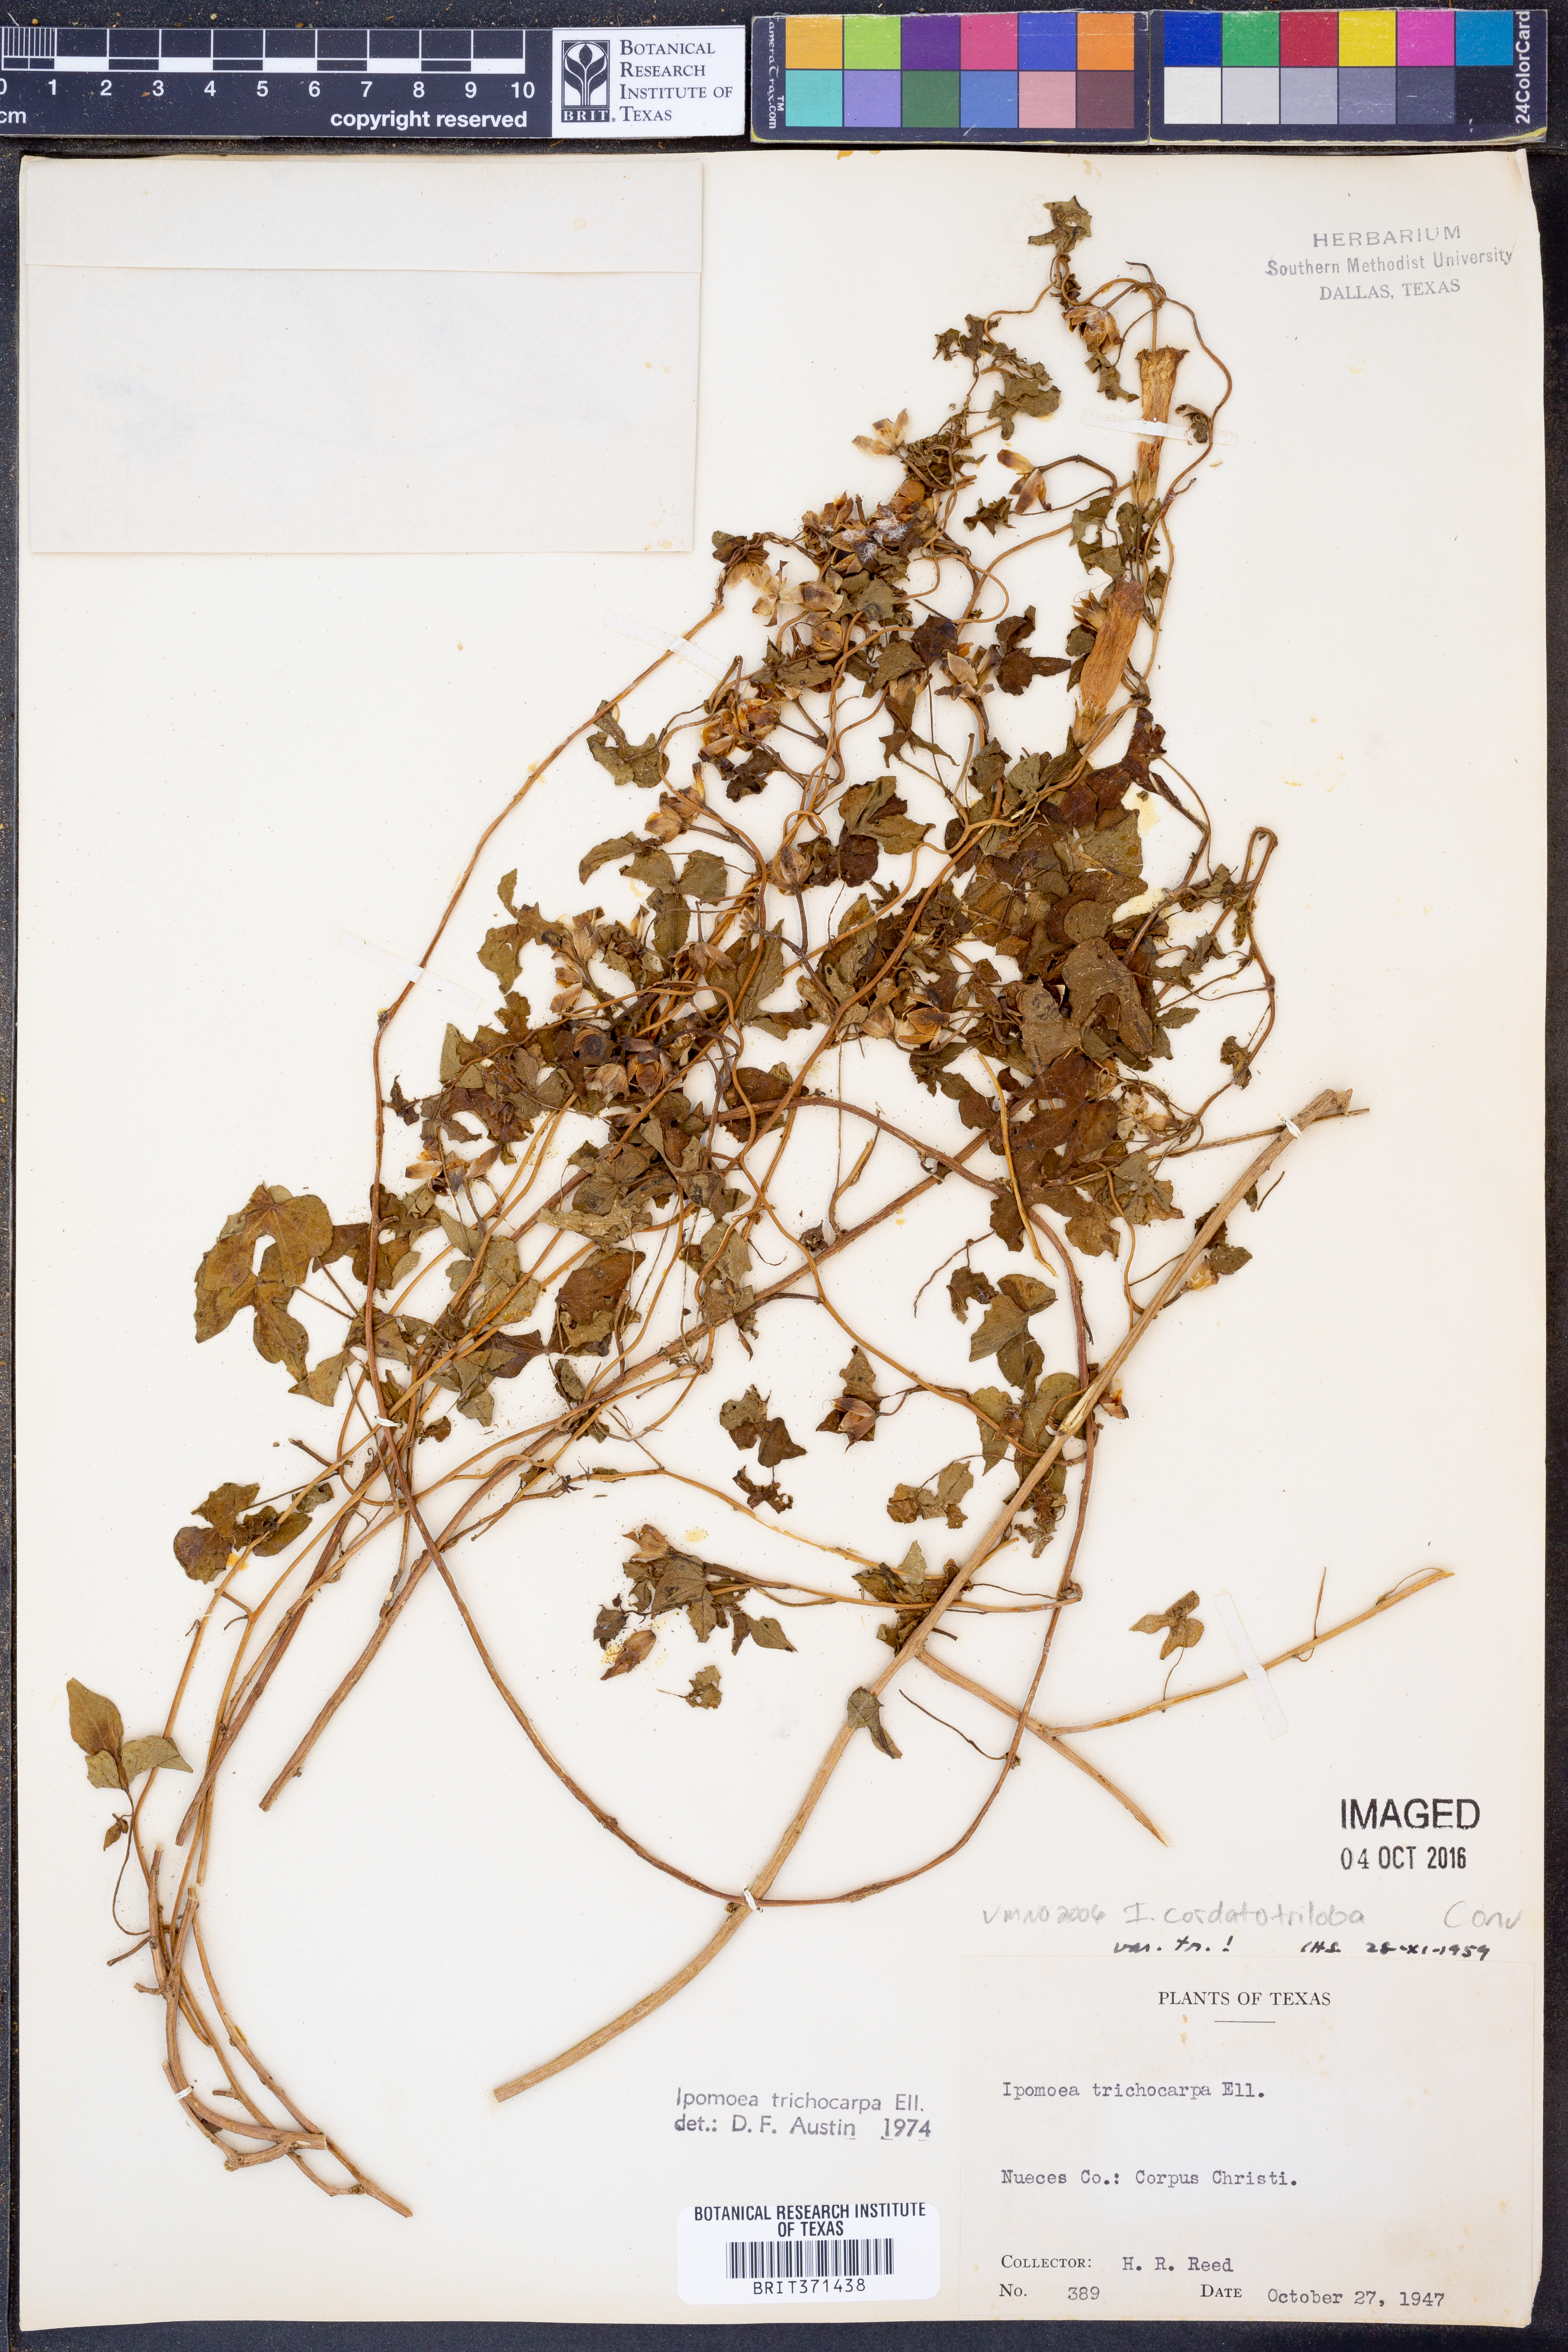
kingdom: Plantae
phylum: Tracheophyta
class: Magnoliopsida
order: Solanales
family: Convolvulaceae
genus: Ipomoea
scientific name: Ipomoea cordatotriloba
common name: Cotton morning glory
